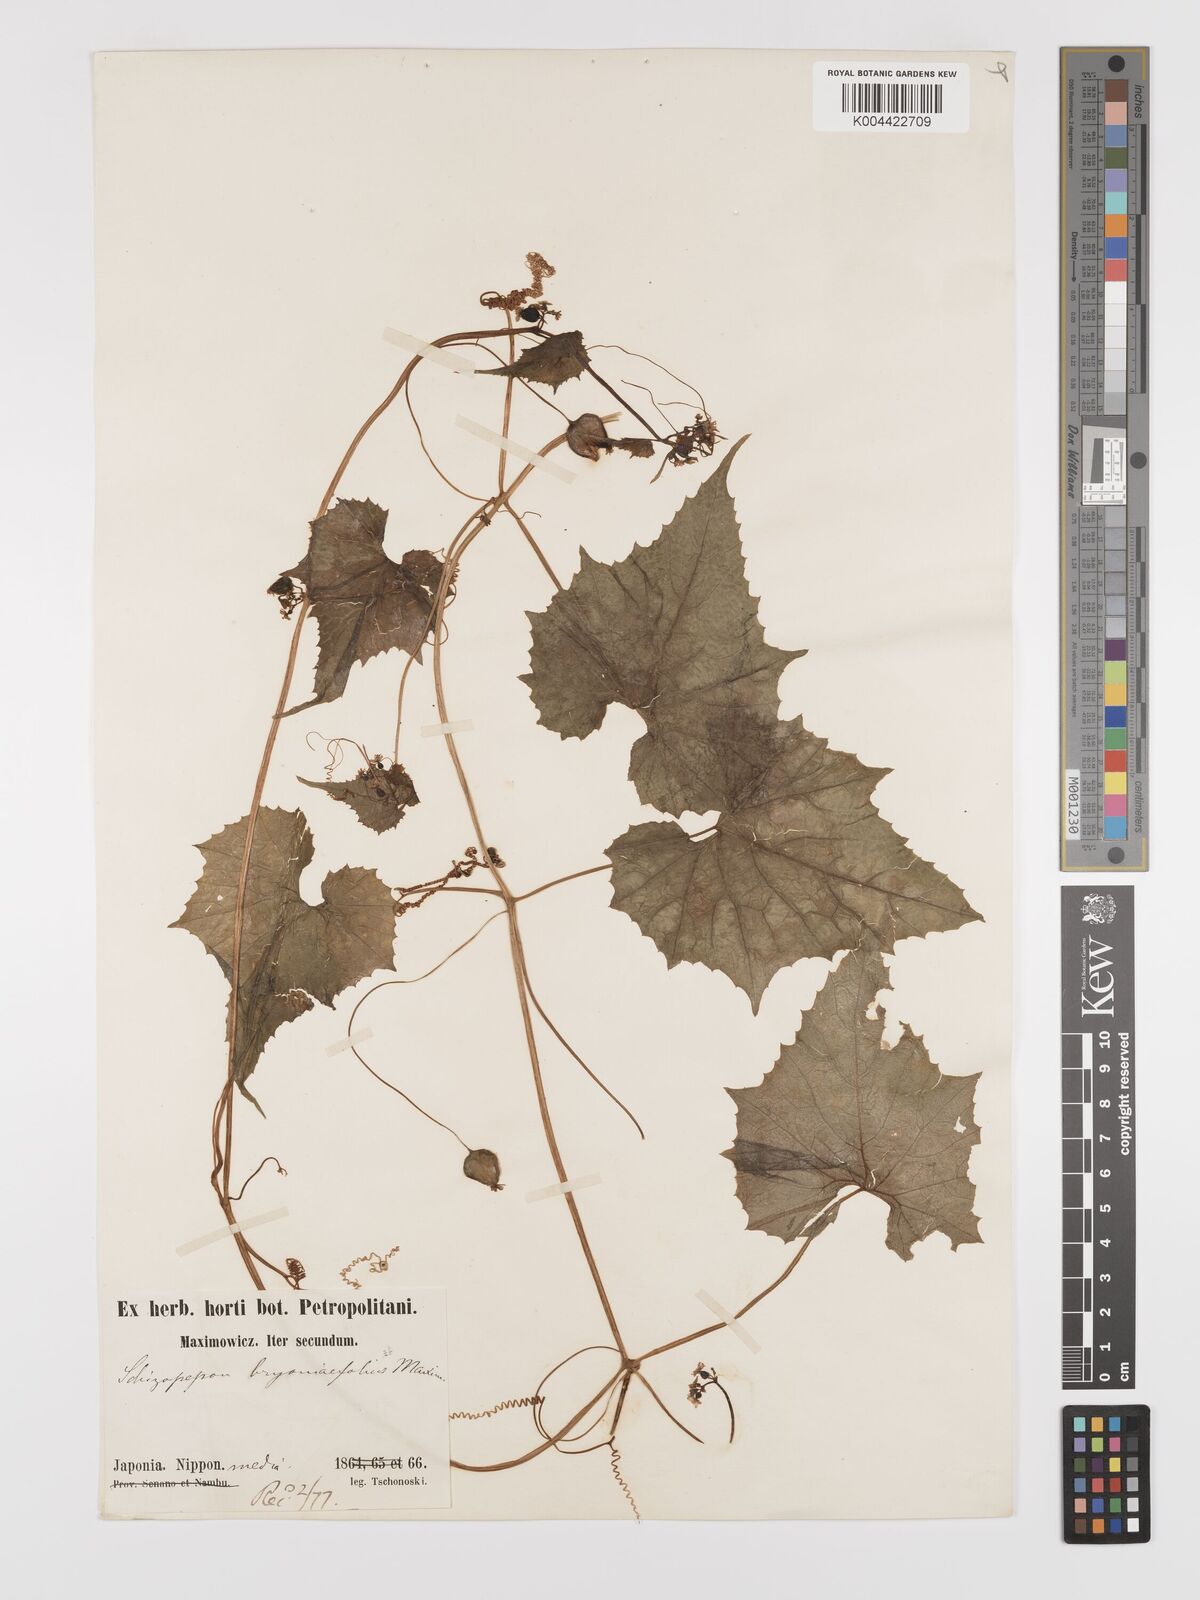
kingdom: Plantae
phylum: Tracheophyta
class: Magnoliopsida
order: Cucurbitales
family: Cucurbitaceae
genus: Schizopepon
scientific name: Schizopepon bryoniifolius
